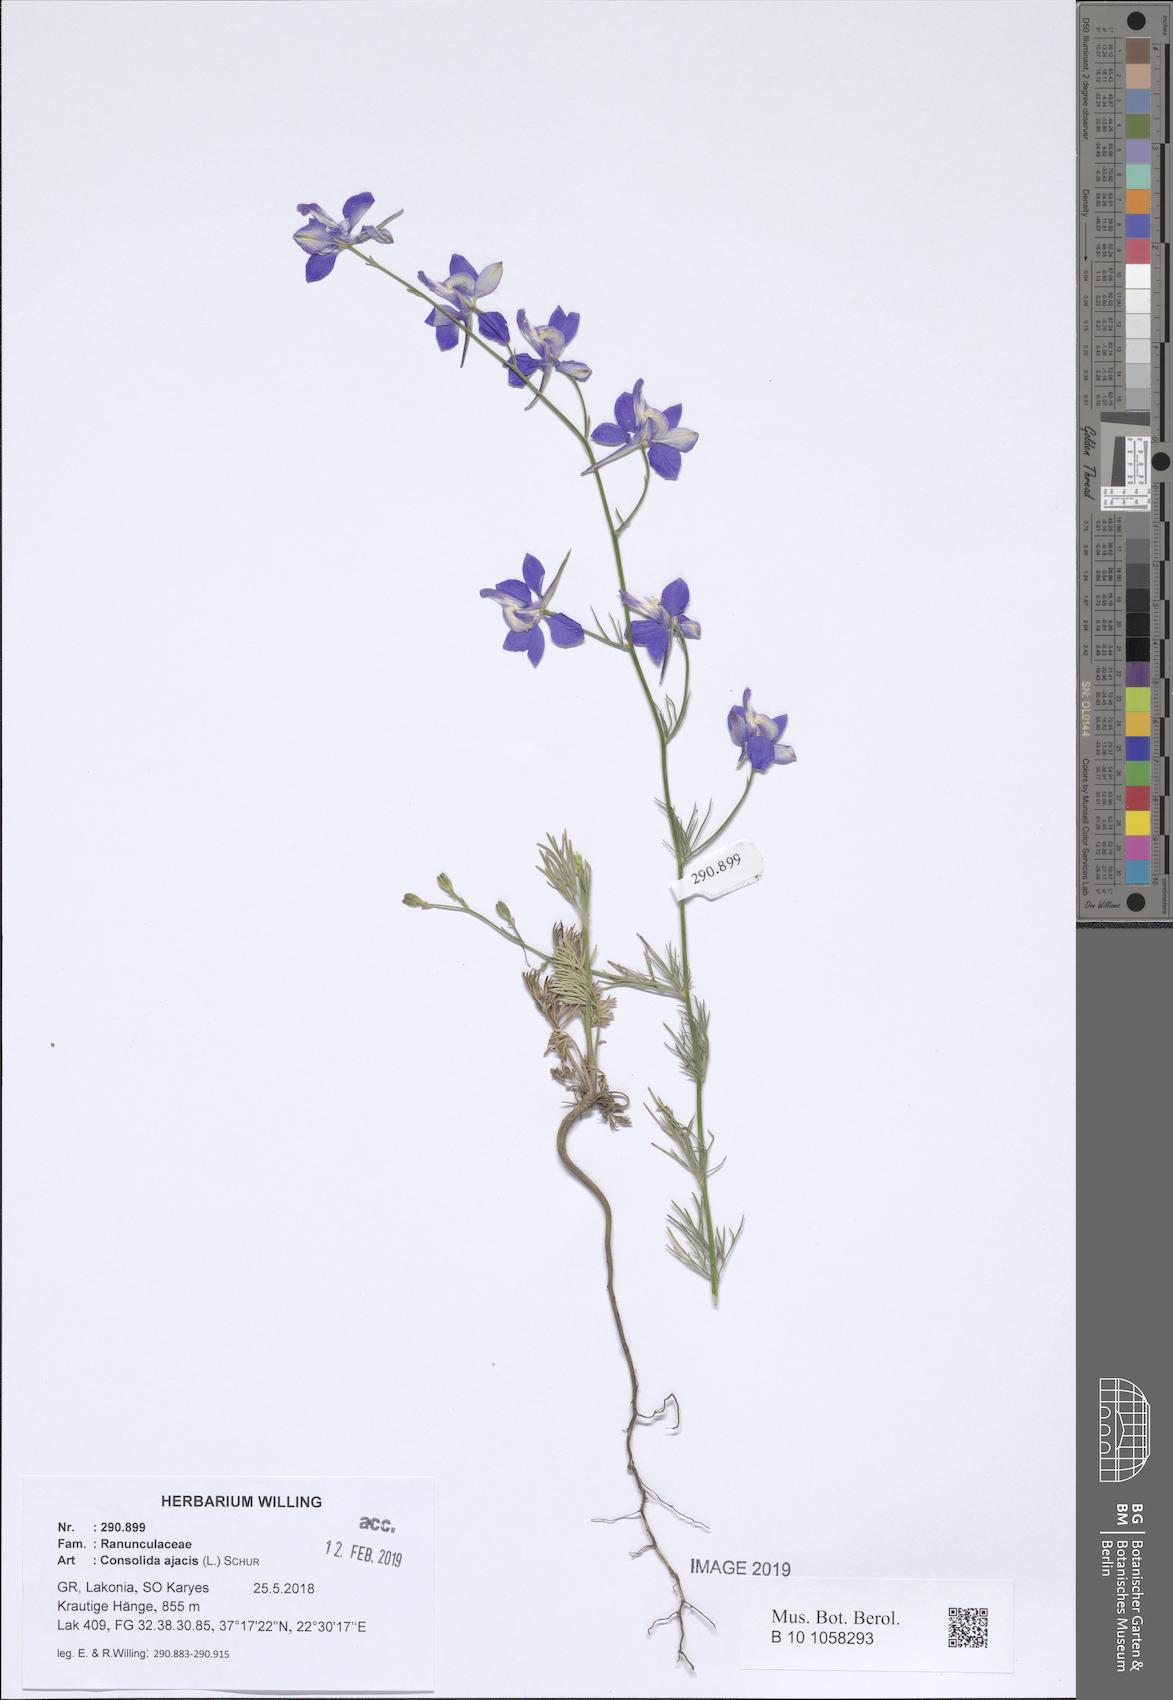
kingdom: Plantae
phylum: Tracheophyta
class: Magnoliopsida
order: Ranunculales
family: Ranunculaceae
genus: Delphinium
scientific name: Delphinium ajacis
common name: Doubtful knight's-spur
